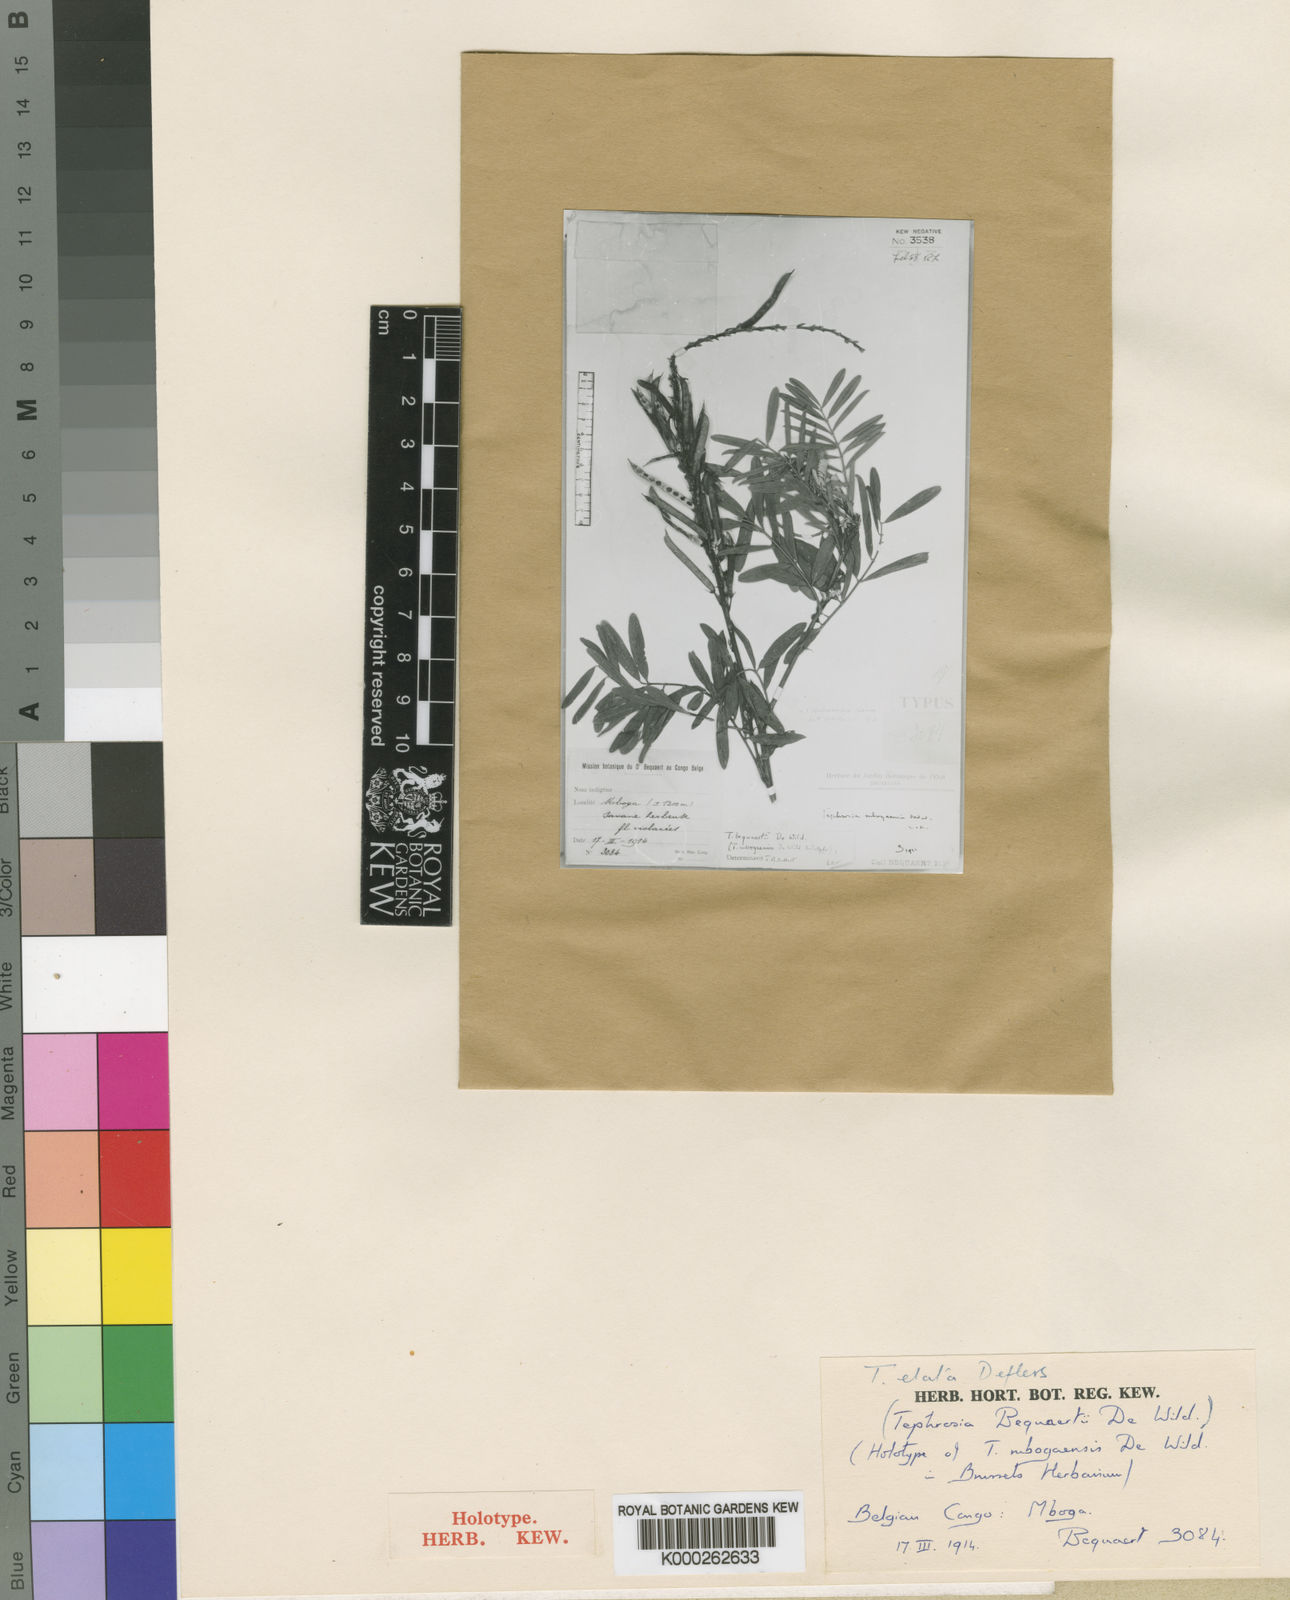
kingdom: Plantae
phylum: Tracheophyta
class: Magnoliopsida
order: Fabales
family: Fabaceae
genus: Tephrosia
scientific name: Tephrosia elata
